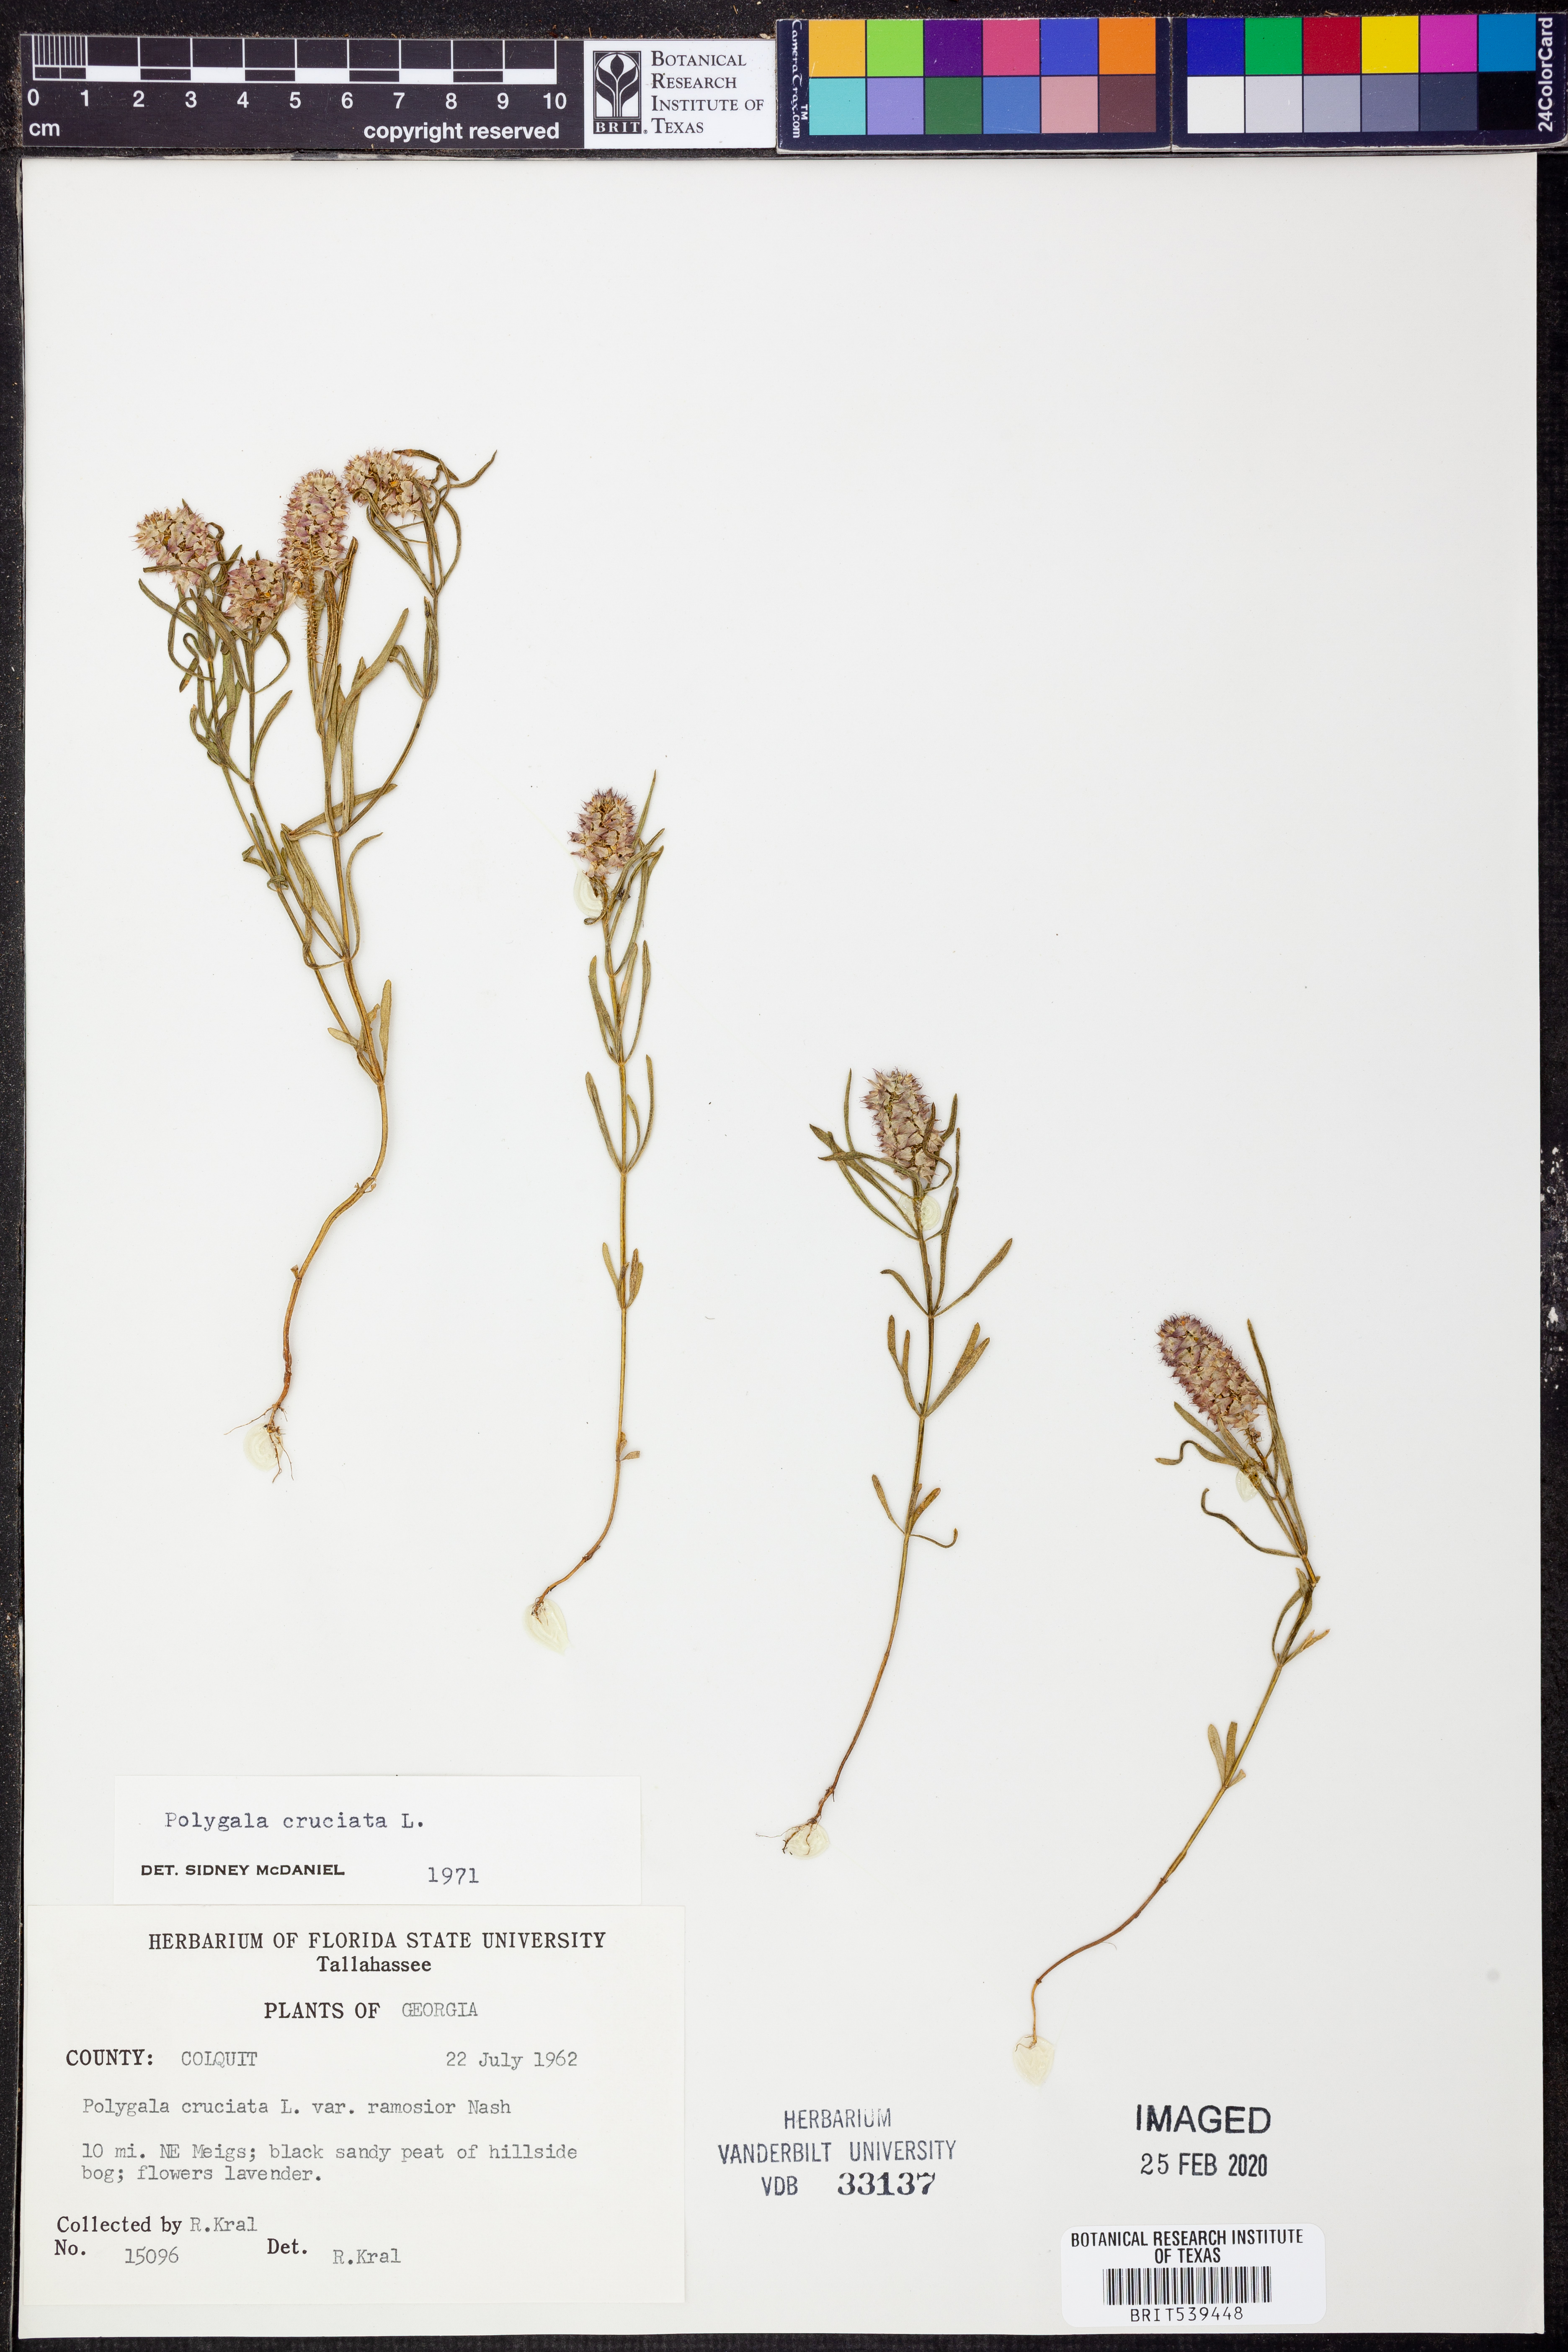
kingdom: Plantae
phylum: Tracheophyta
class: Magnoliopsida
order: Fabales
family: Polygalaceae
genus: Polygala
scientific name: Polygala cruciata
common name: Drumheads
